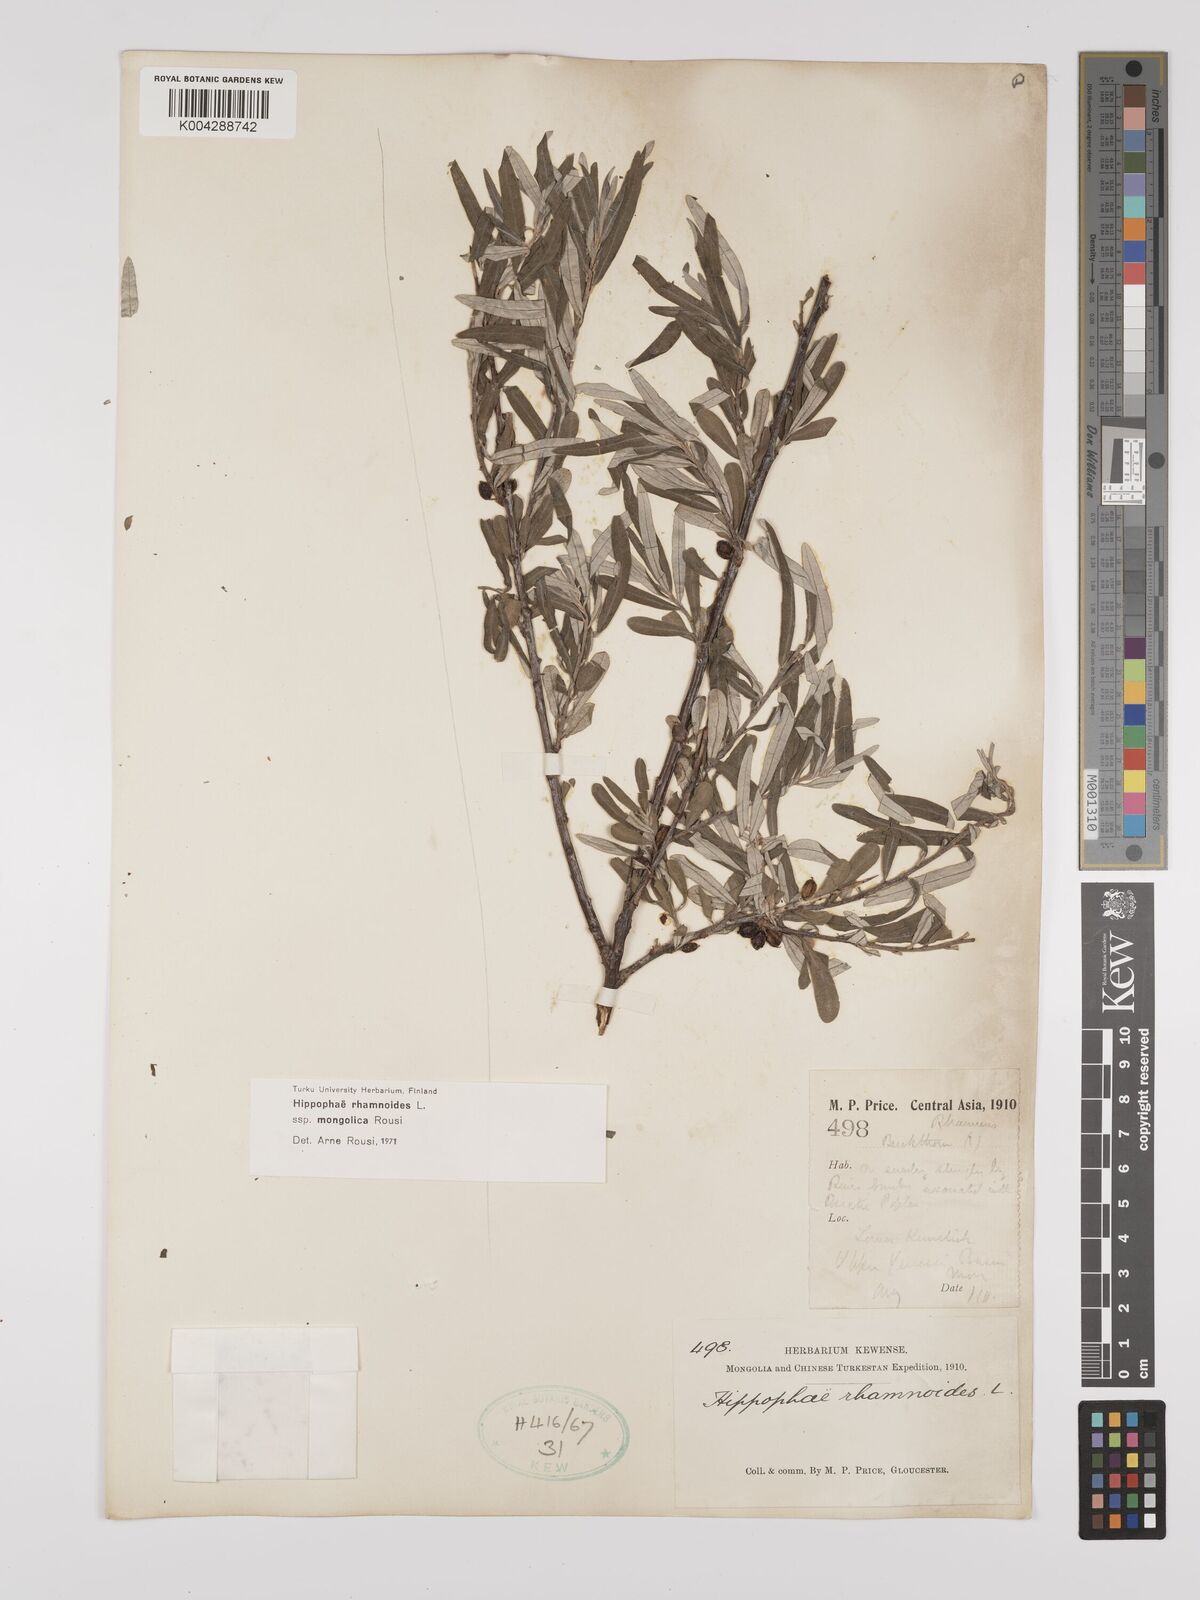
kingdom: Plantae
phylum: Tracheophyta
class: Magnoliopsida
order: Rosales
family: Elaeagnaceae
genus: Hippophae
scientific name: Hippophae rhamnoides
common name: Sea-buckthorn
